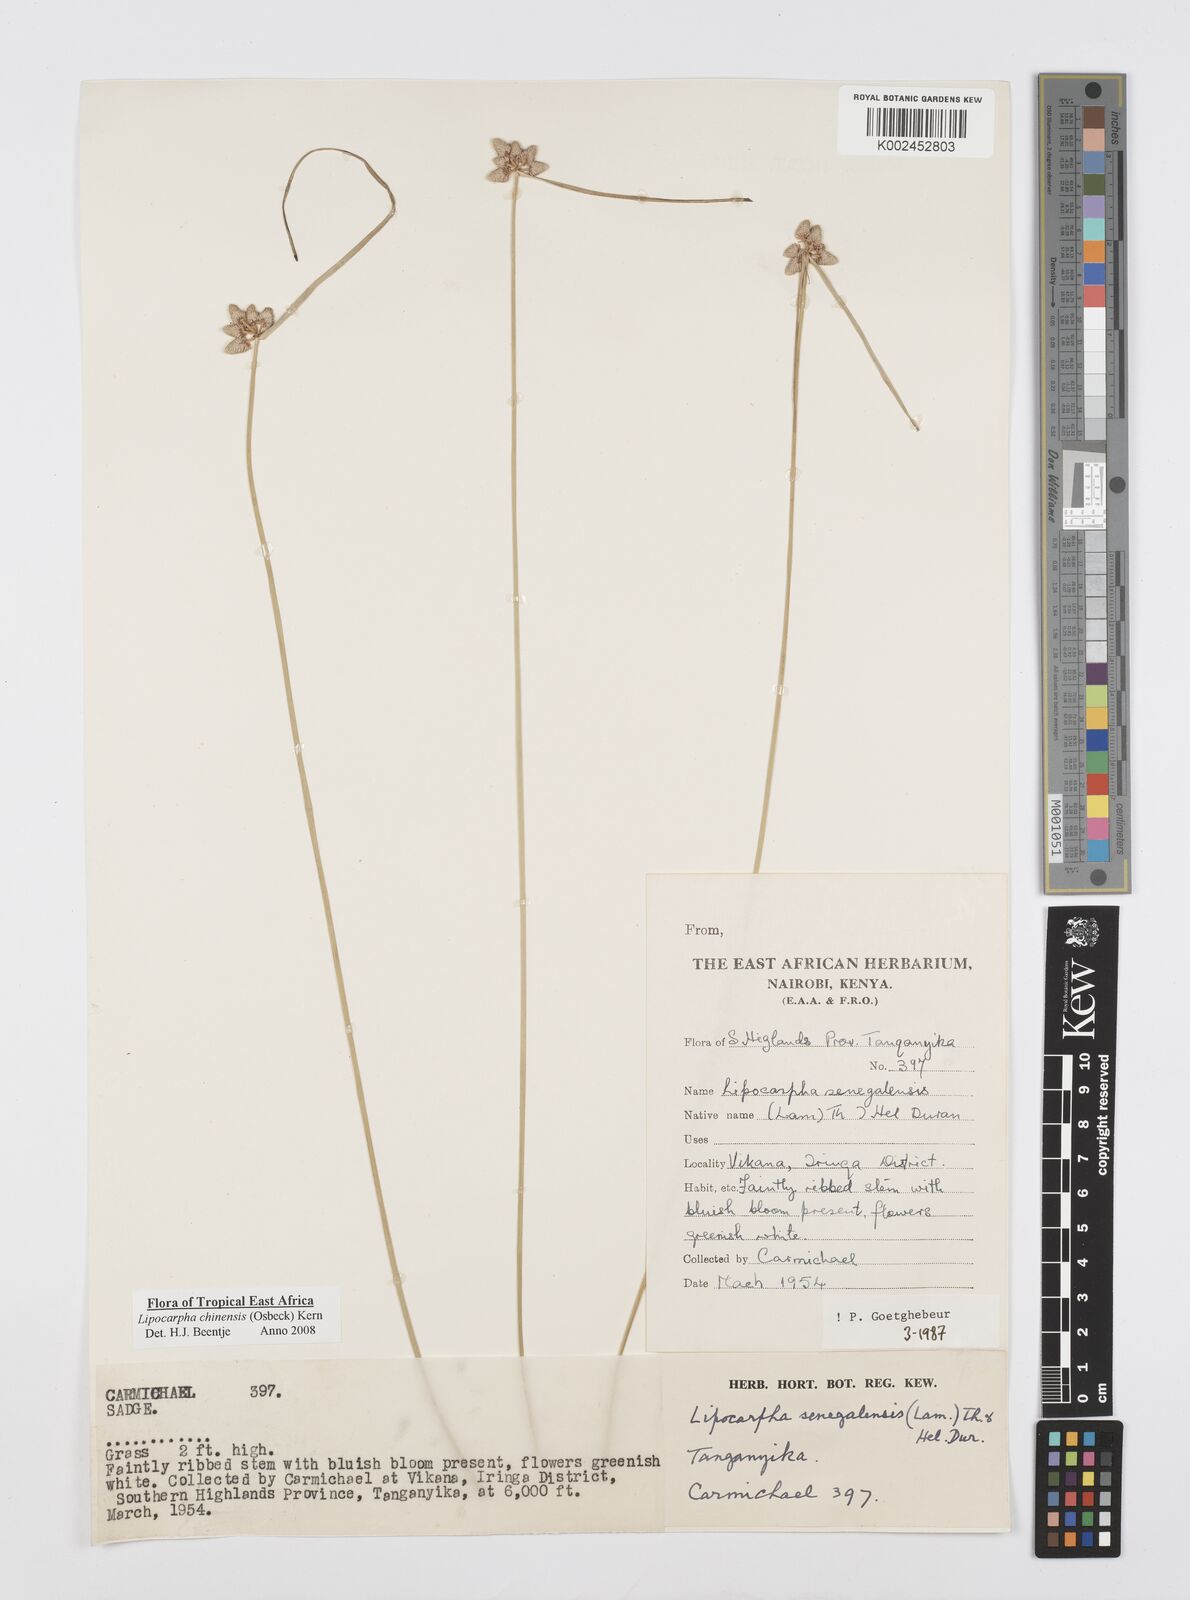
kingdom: Plantae
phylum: Tracheophyta
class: Liliopsida
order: Poales
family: Cyperaceae
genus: Cyperus
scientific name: Cyperus albescens
